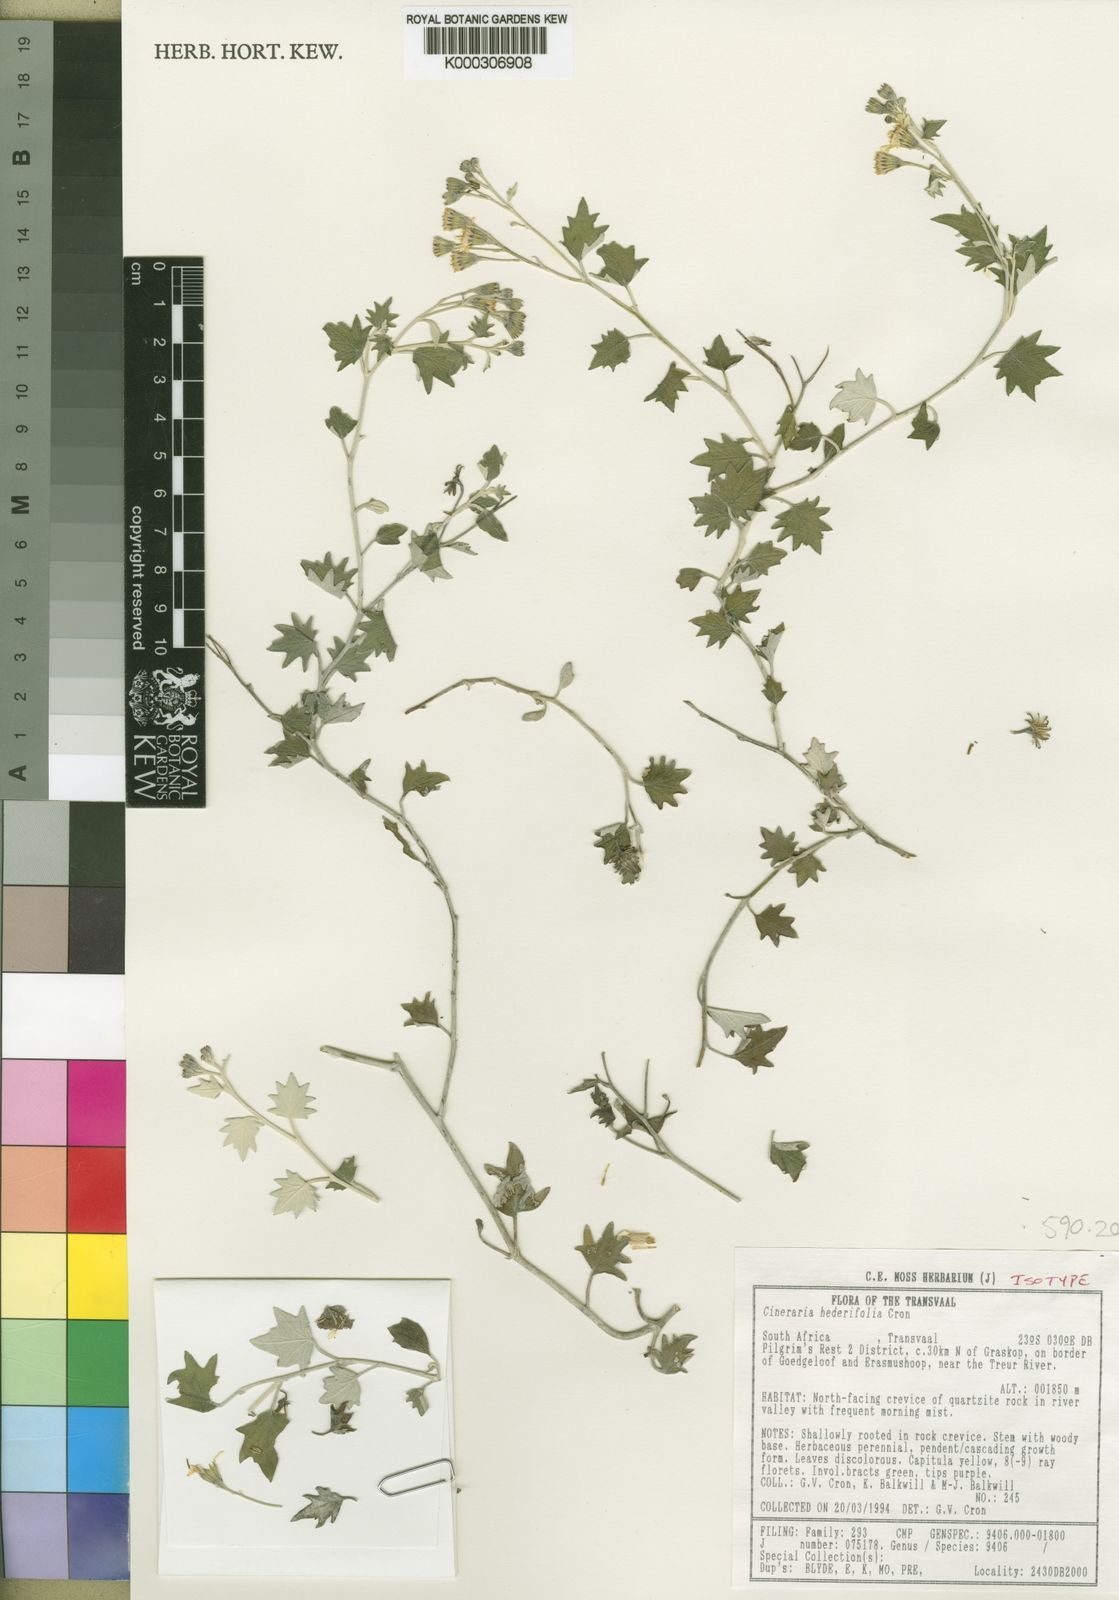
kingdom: Plantae
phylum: Tracheophyta
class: Magnoliopsida
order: Asterales
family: Asteraceae
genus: Senecio
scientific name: Senecio hederiformis
